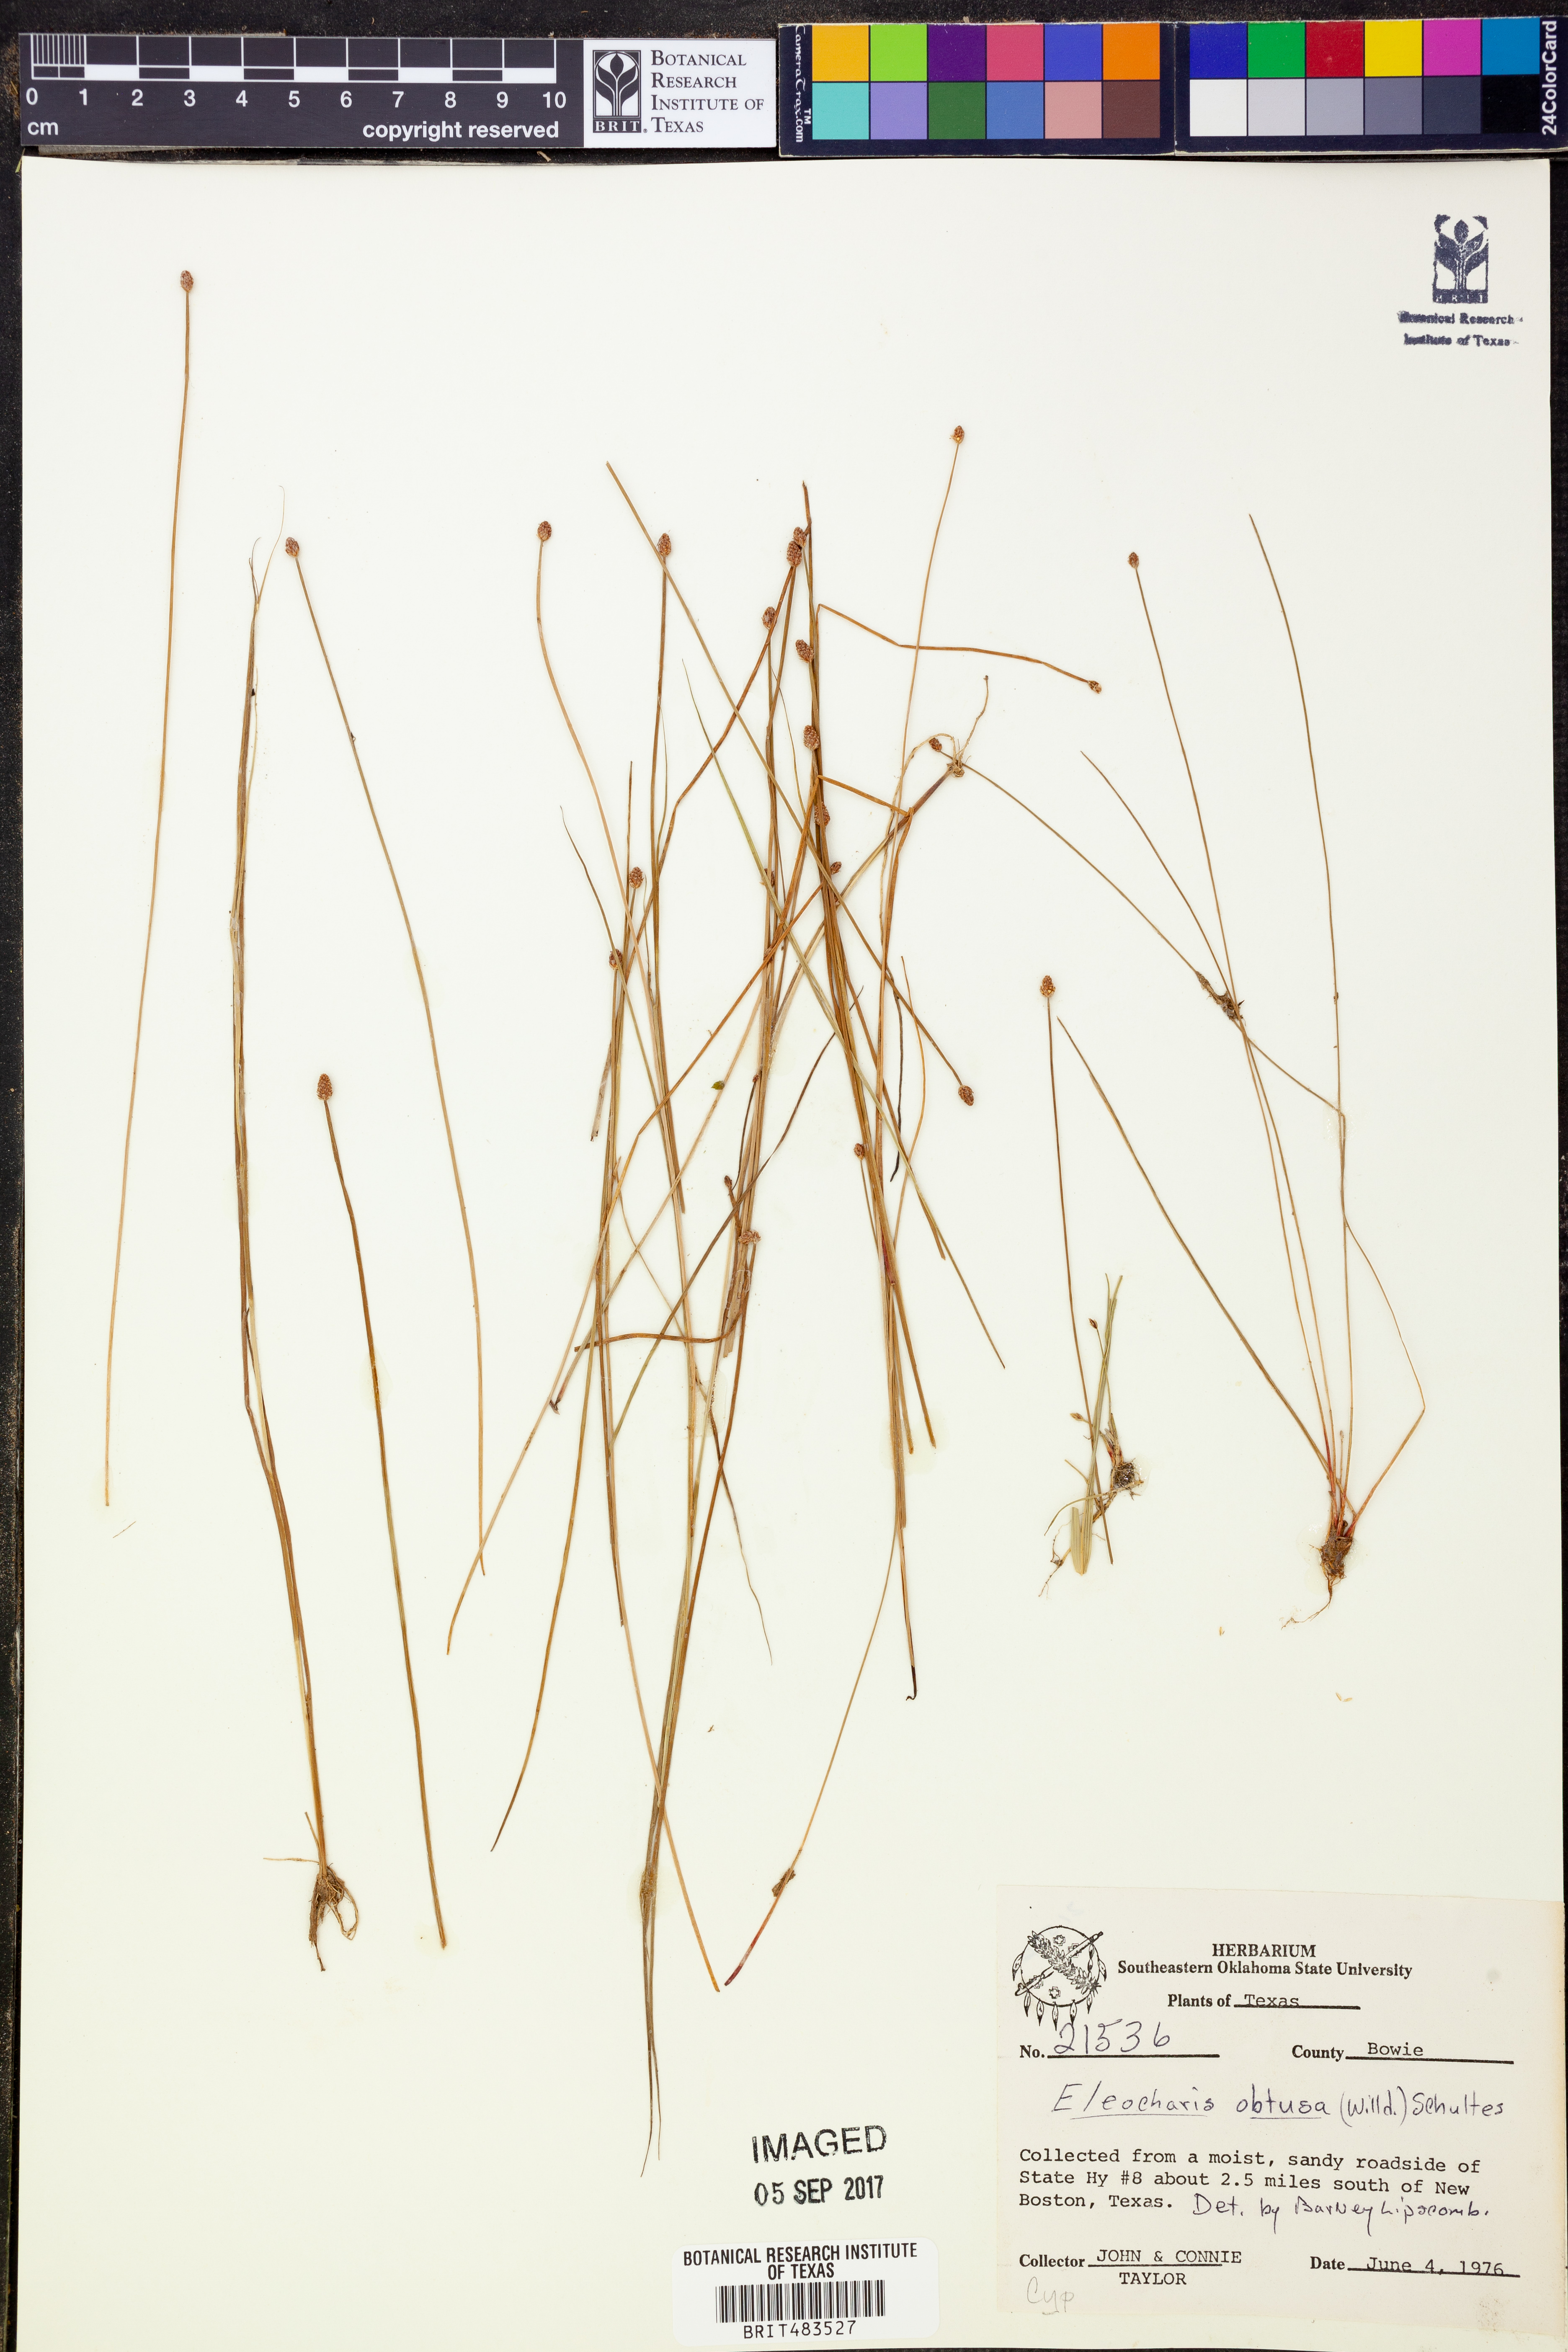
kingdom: Plantae
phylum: Tracheophyta
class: Liliopsida
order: Poales
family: Cyperaceae
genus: Eleocharis
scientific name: Eleocharis obtusa
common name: Blunt spikerush
